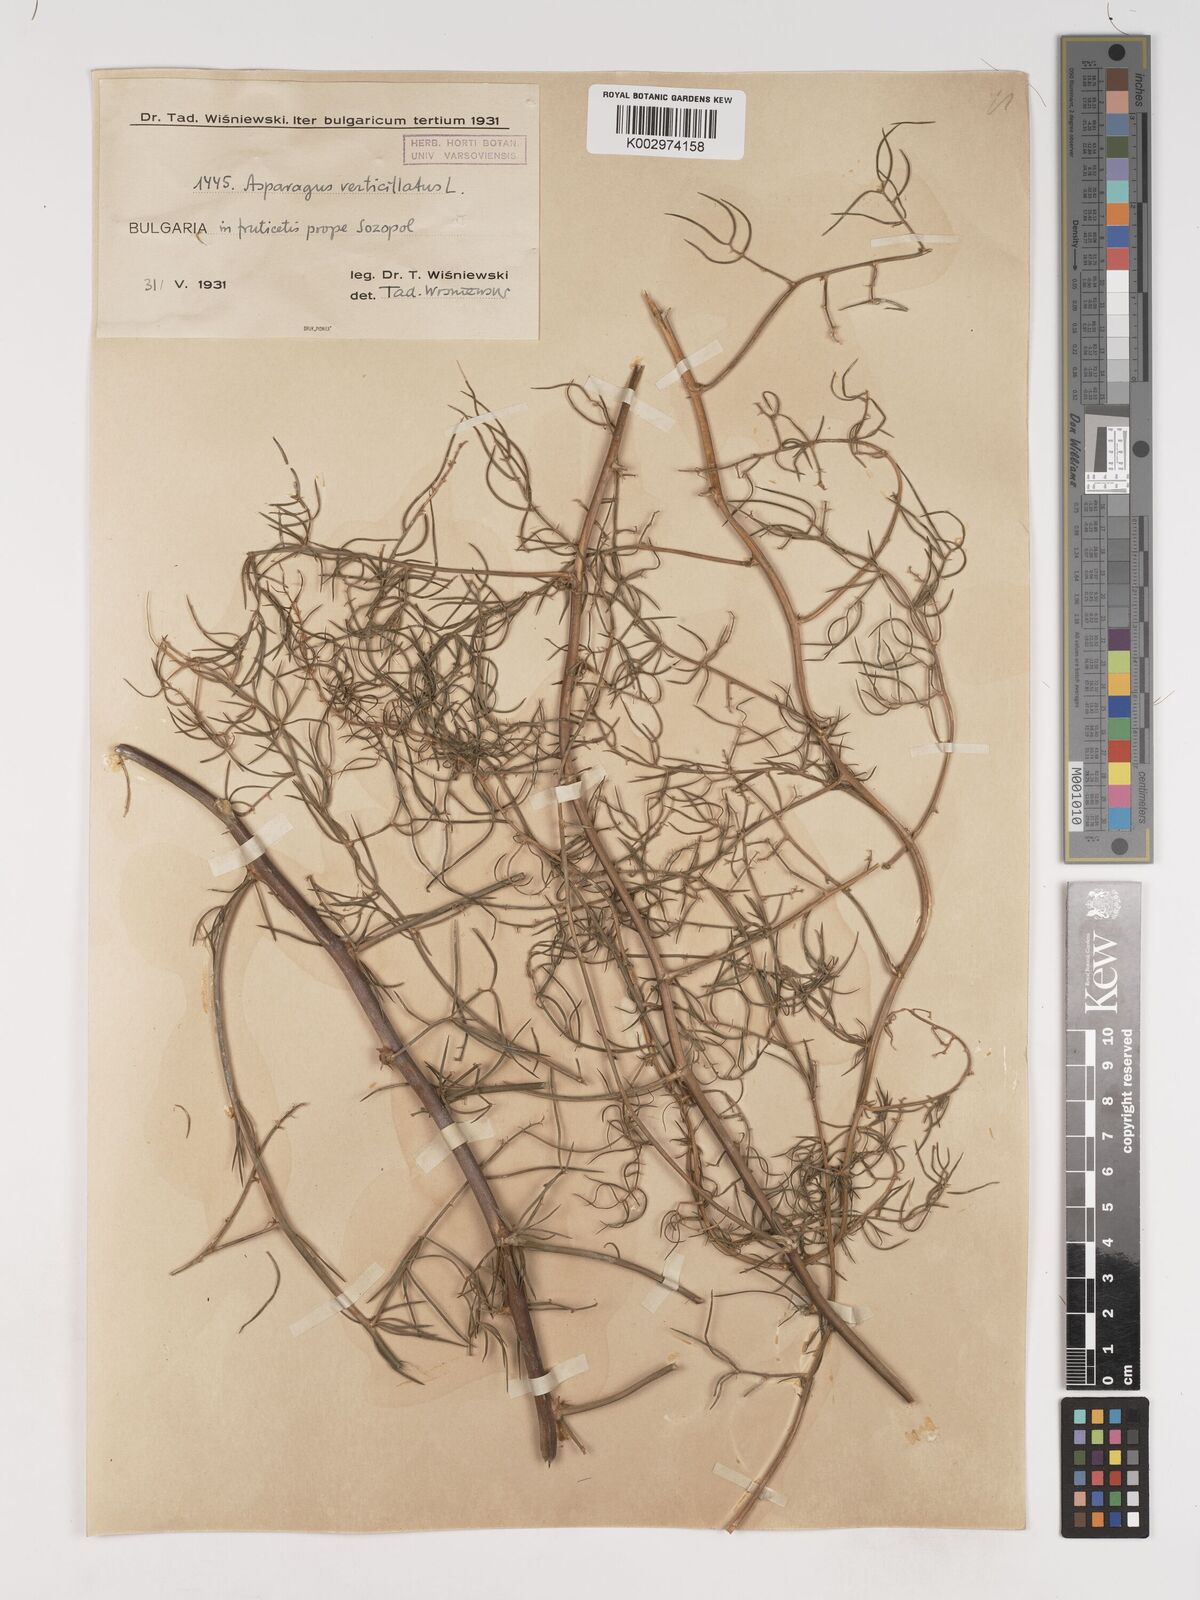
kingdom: Plantae
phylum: Tracheophyta
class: Liliopsida
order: Asparagales
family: Asparagaceae
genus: Asparagus
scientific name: Asparagus verticillatus
